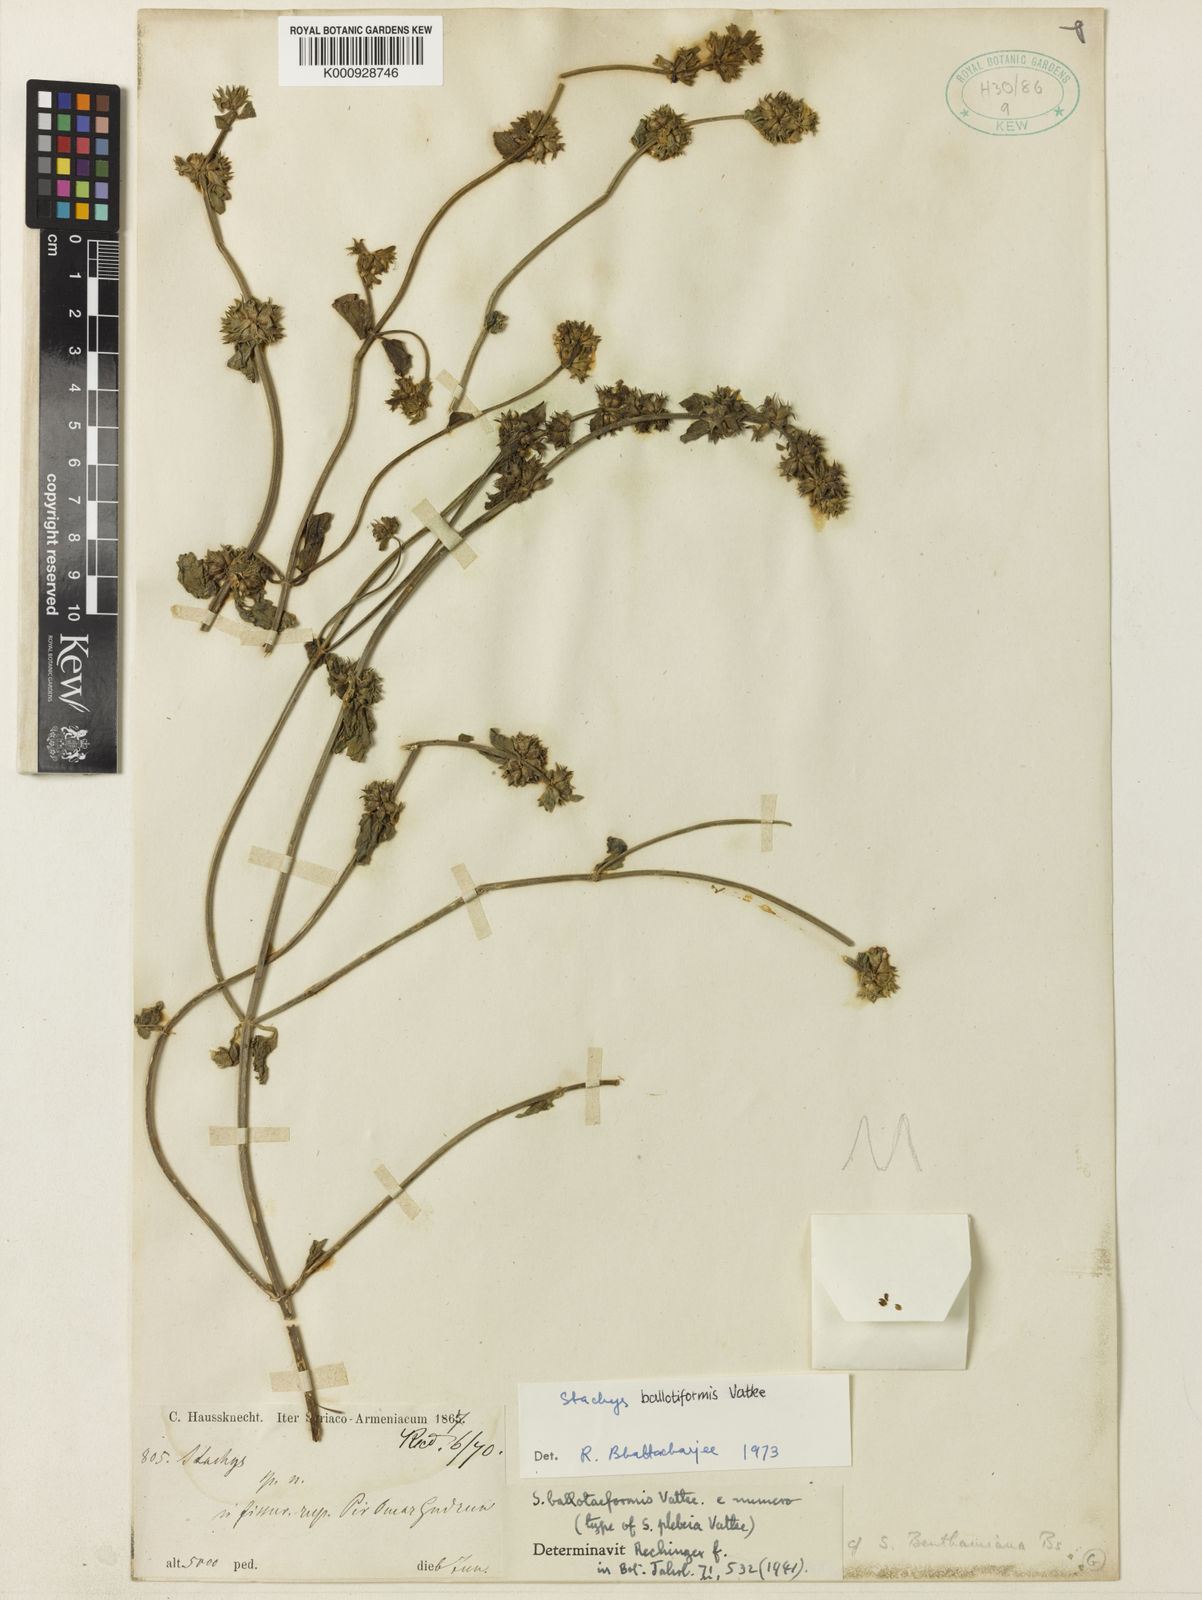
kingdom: Plantae
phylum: Tracheophyta
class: Magnoliopsida
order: Lamiales
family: Lamiaceae
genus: Stachys
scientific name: Stachys kurdica
